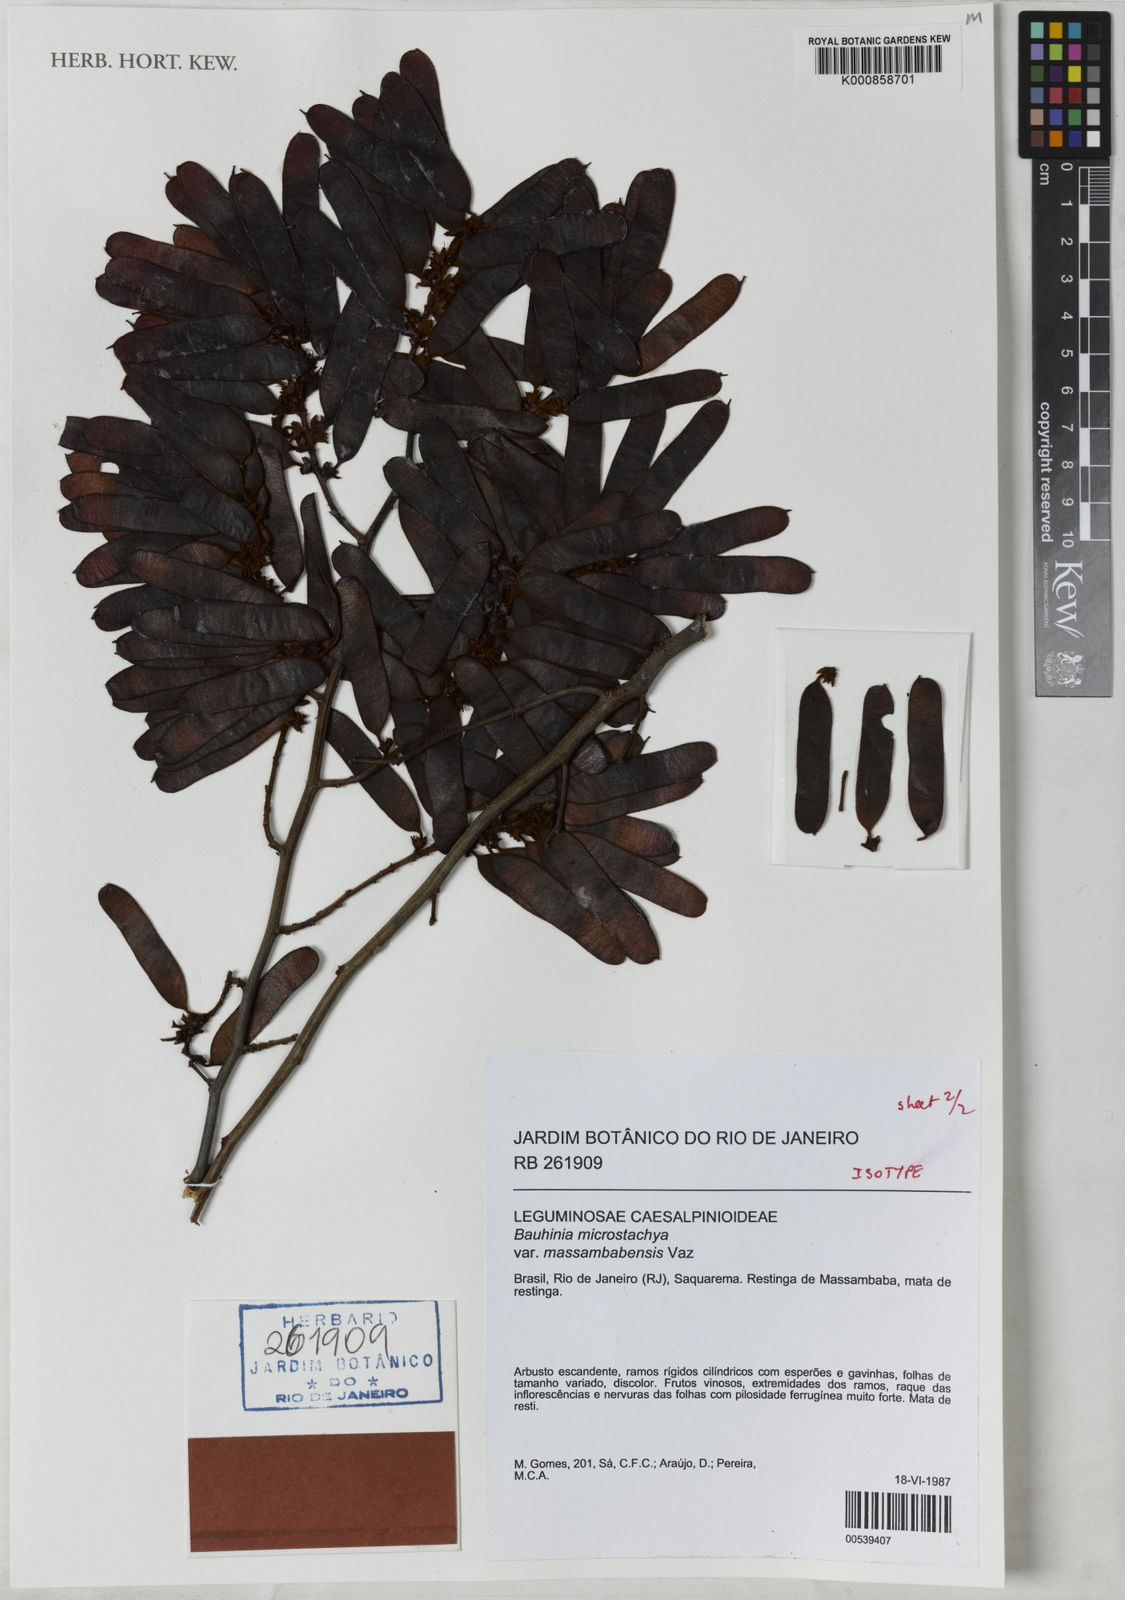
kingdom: Plantae
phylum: Tracheophyta
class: Magnoliopsida
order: Fabales
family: Fabaceae
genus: Schnella
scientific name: Schnella microstachya
